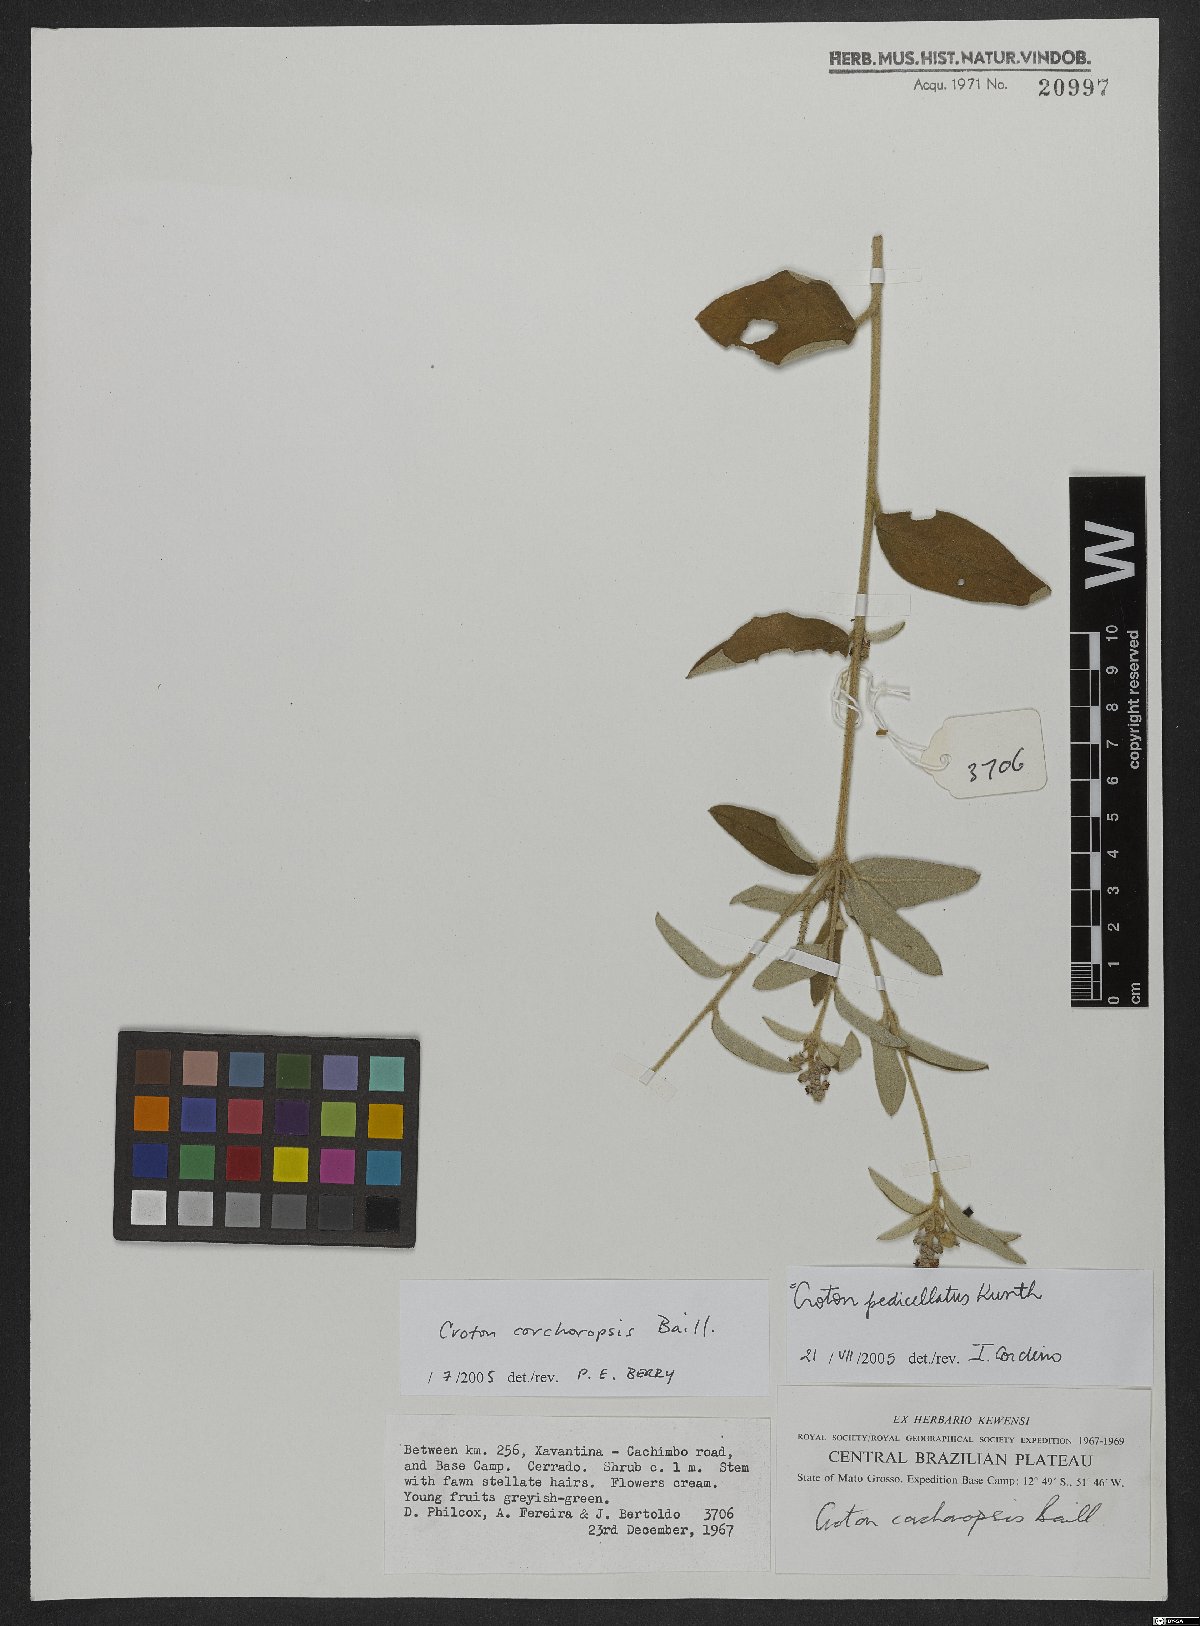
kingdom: Plantae
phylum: Tracheophyta
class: Magnoliopsida
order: Malpighiales
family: Euphorbiaceae
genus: Croton
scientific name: Croton corchoropsis
